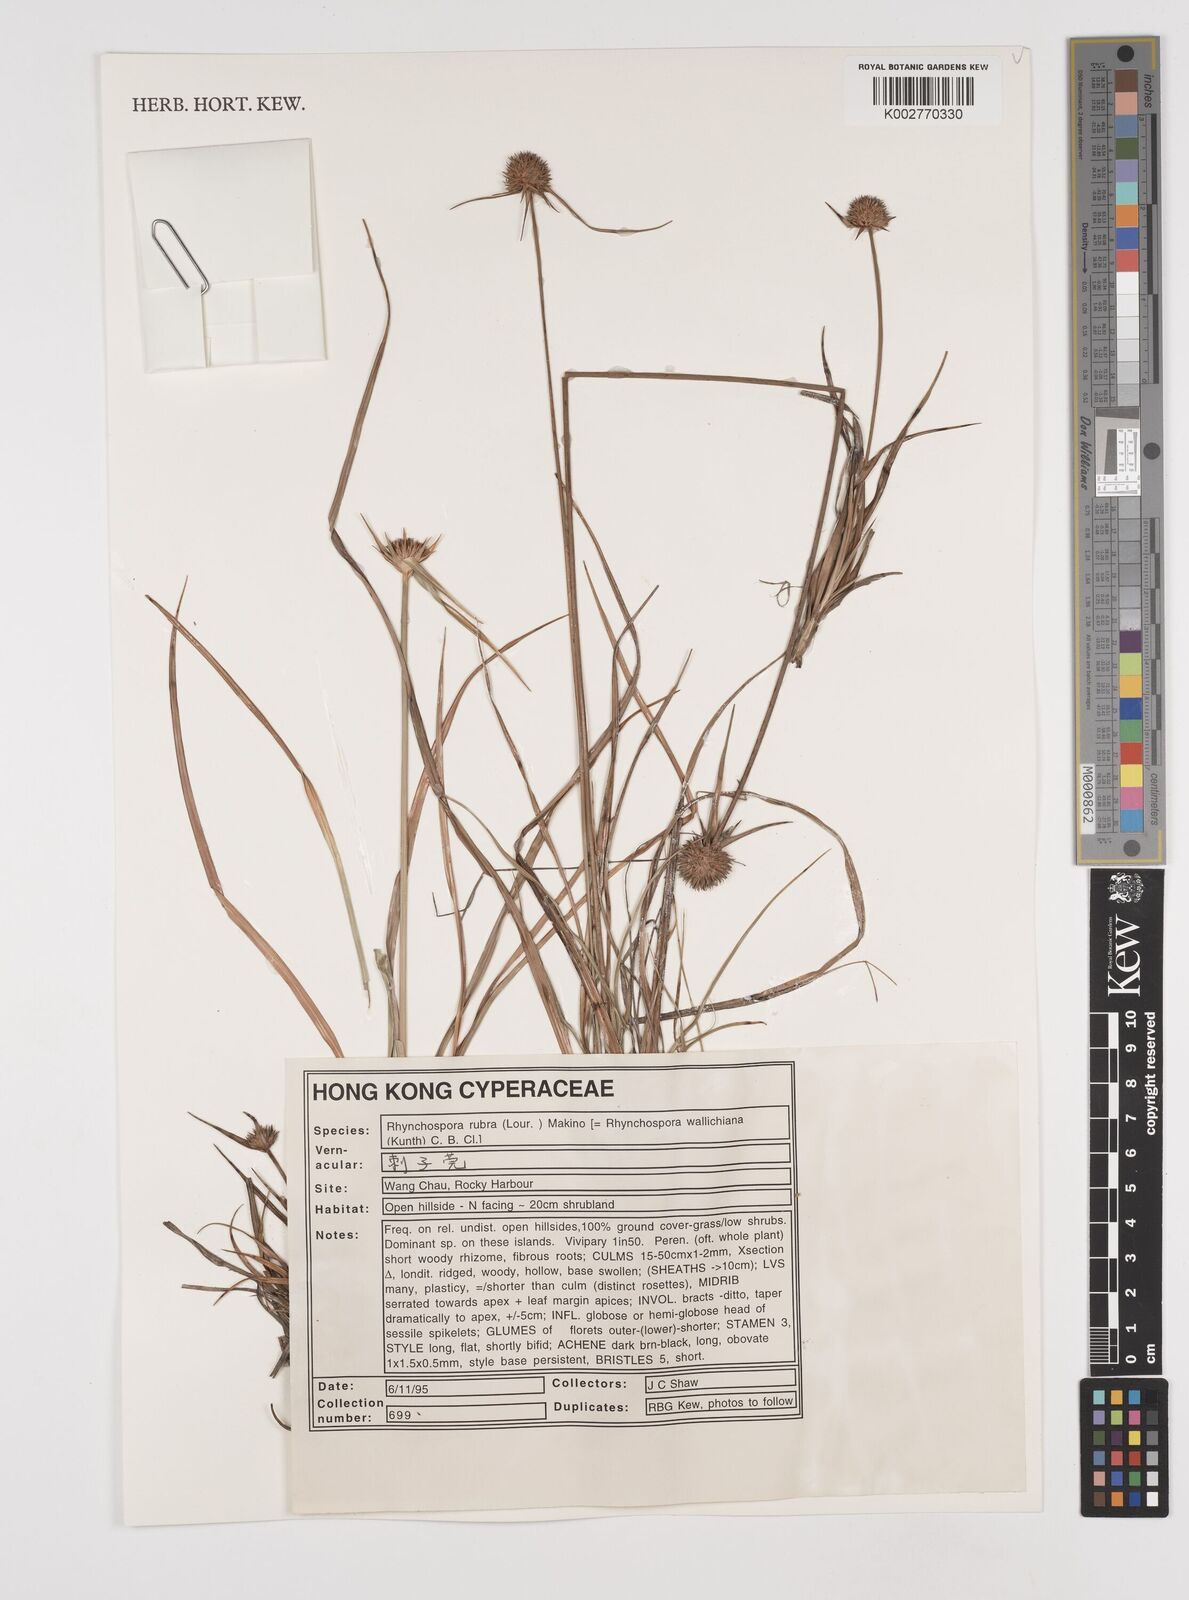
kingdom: Plantae
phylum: Tracheophyta
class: Liliopsida
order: Poales
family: Cyperaceae
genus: Rhynchospora
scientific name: Rhynchospora rubra
